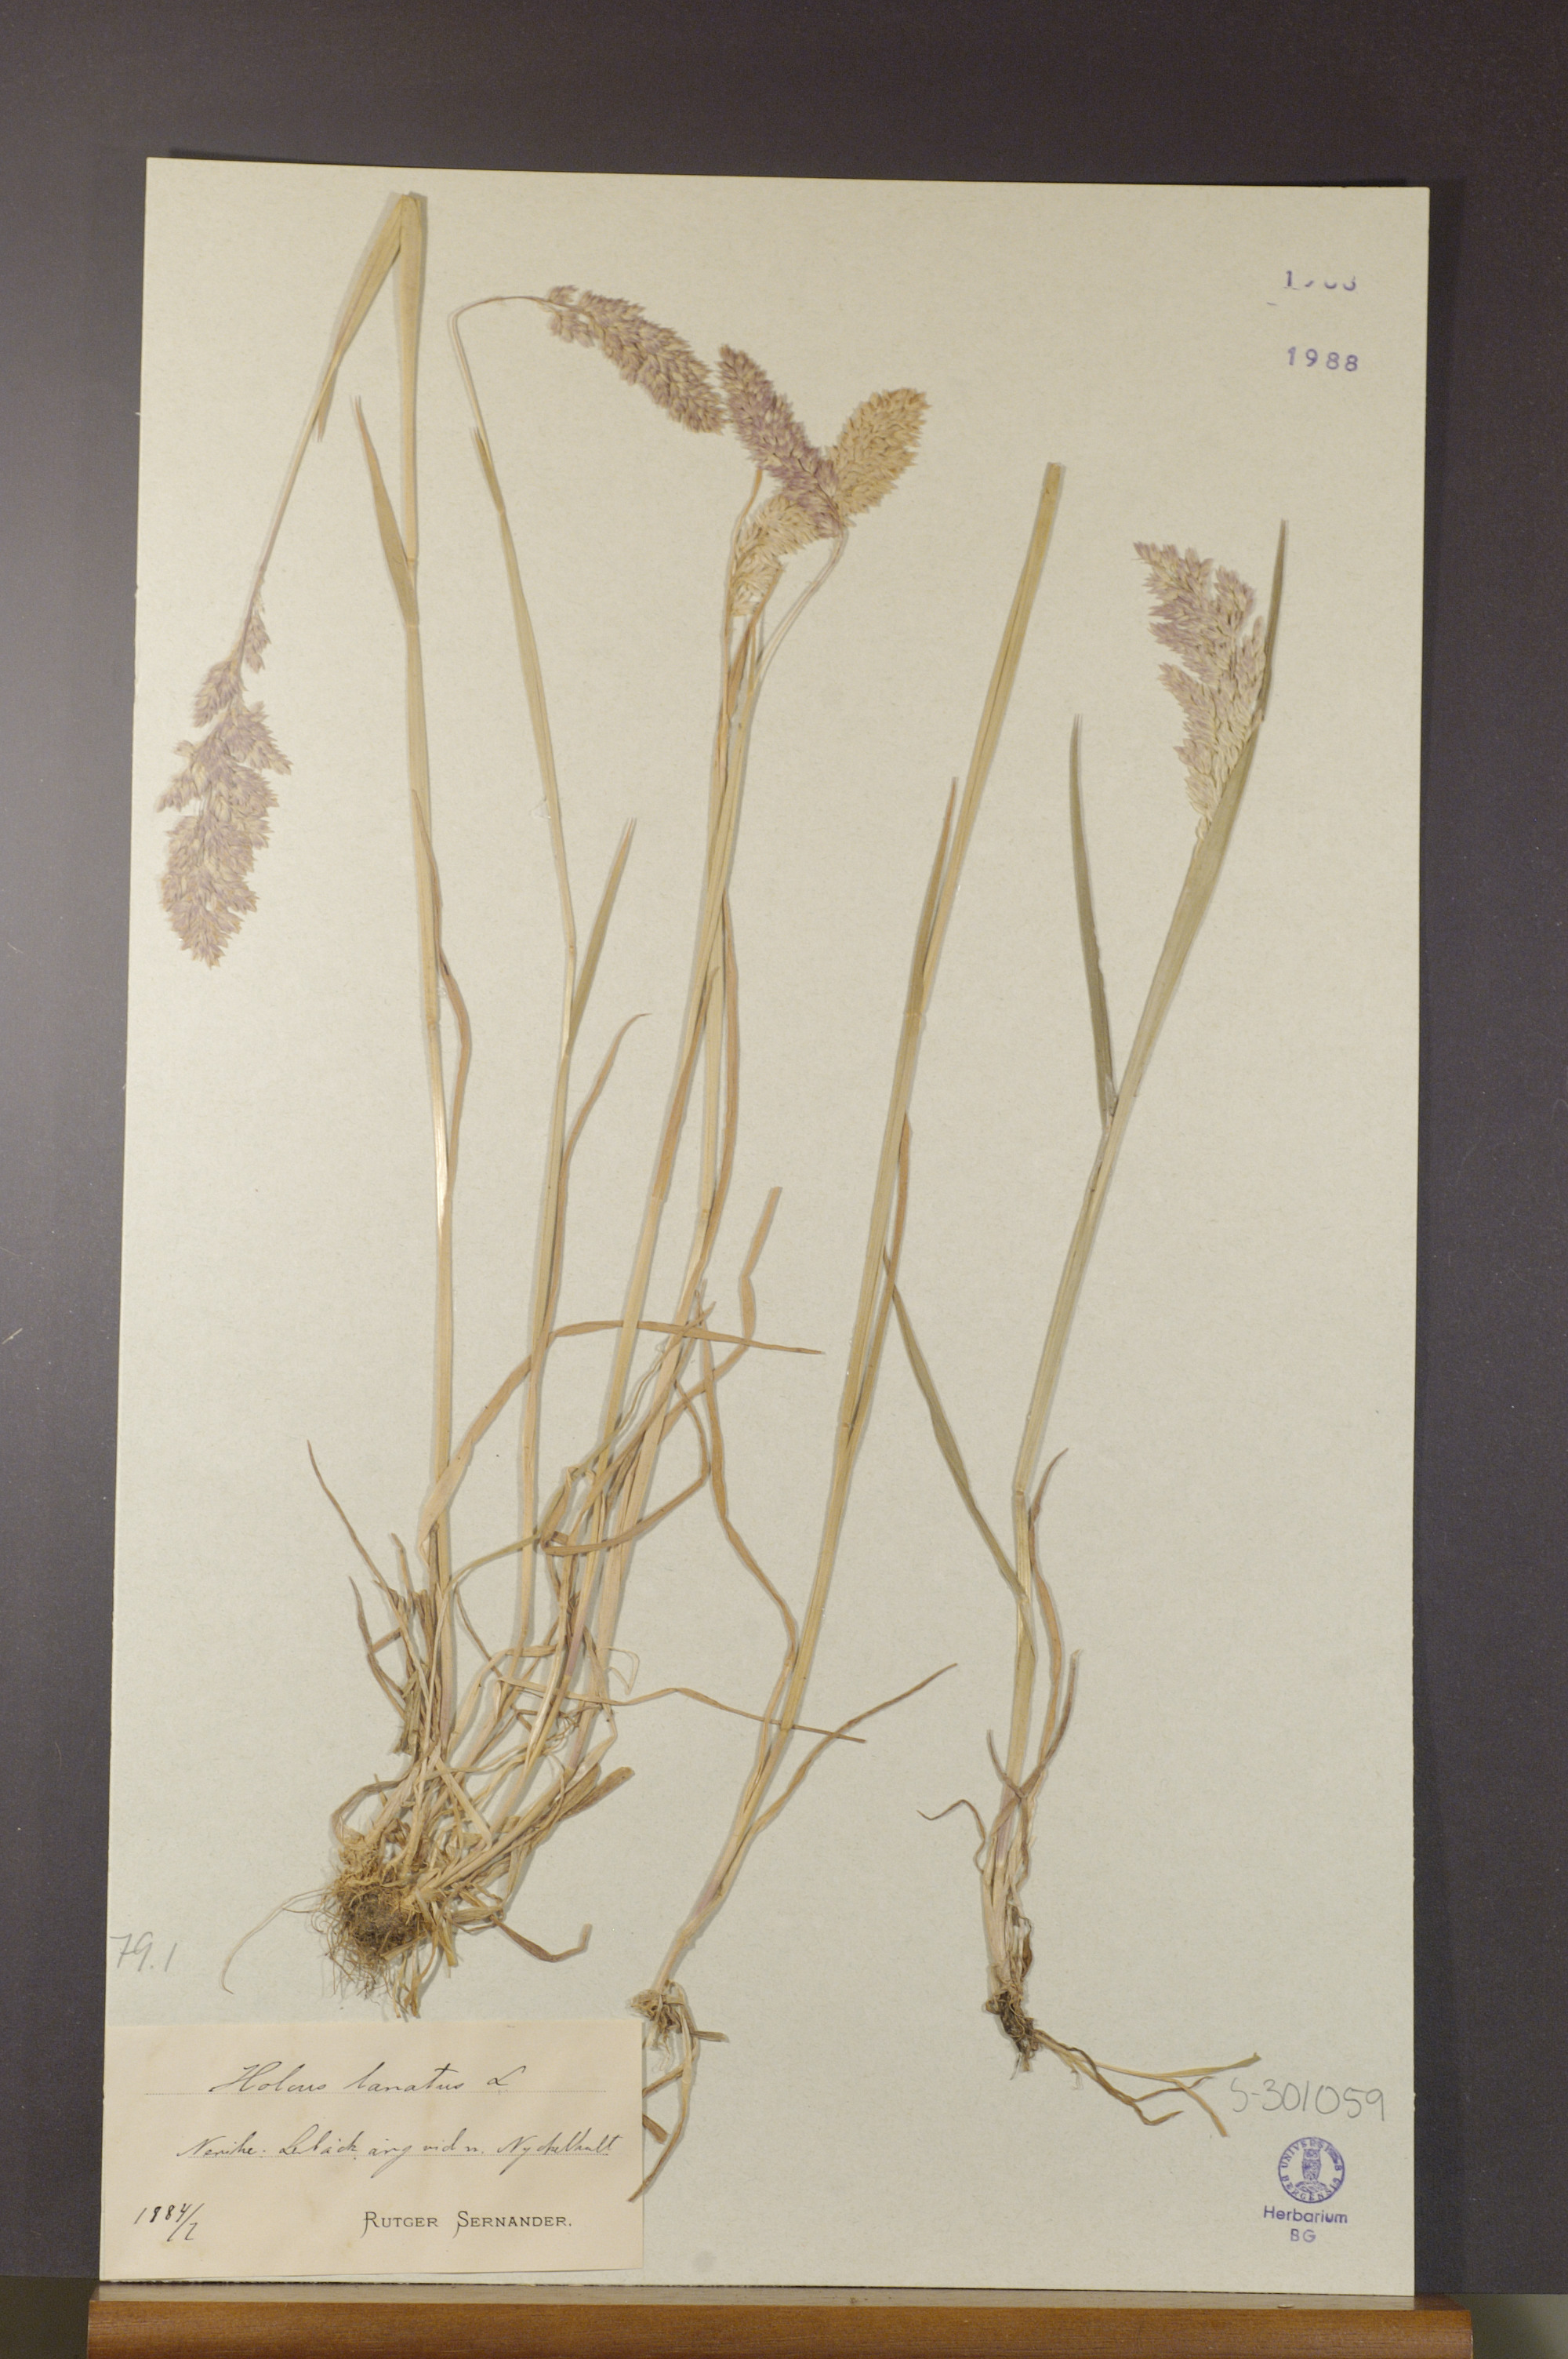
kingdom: Plantae
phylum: Tracheophyta
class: Liliopsida
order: Poales
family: Poaceae
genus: Holcus
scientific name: Holcus lanatus
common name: Yorkshire-fog
